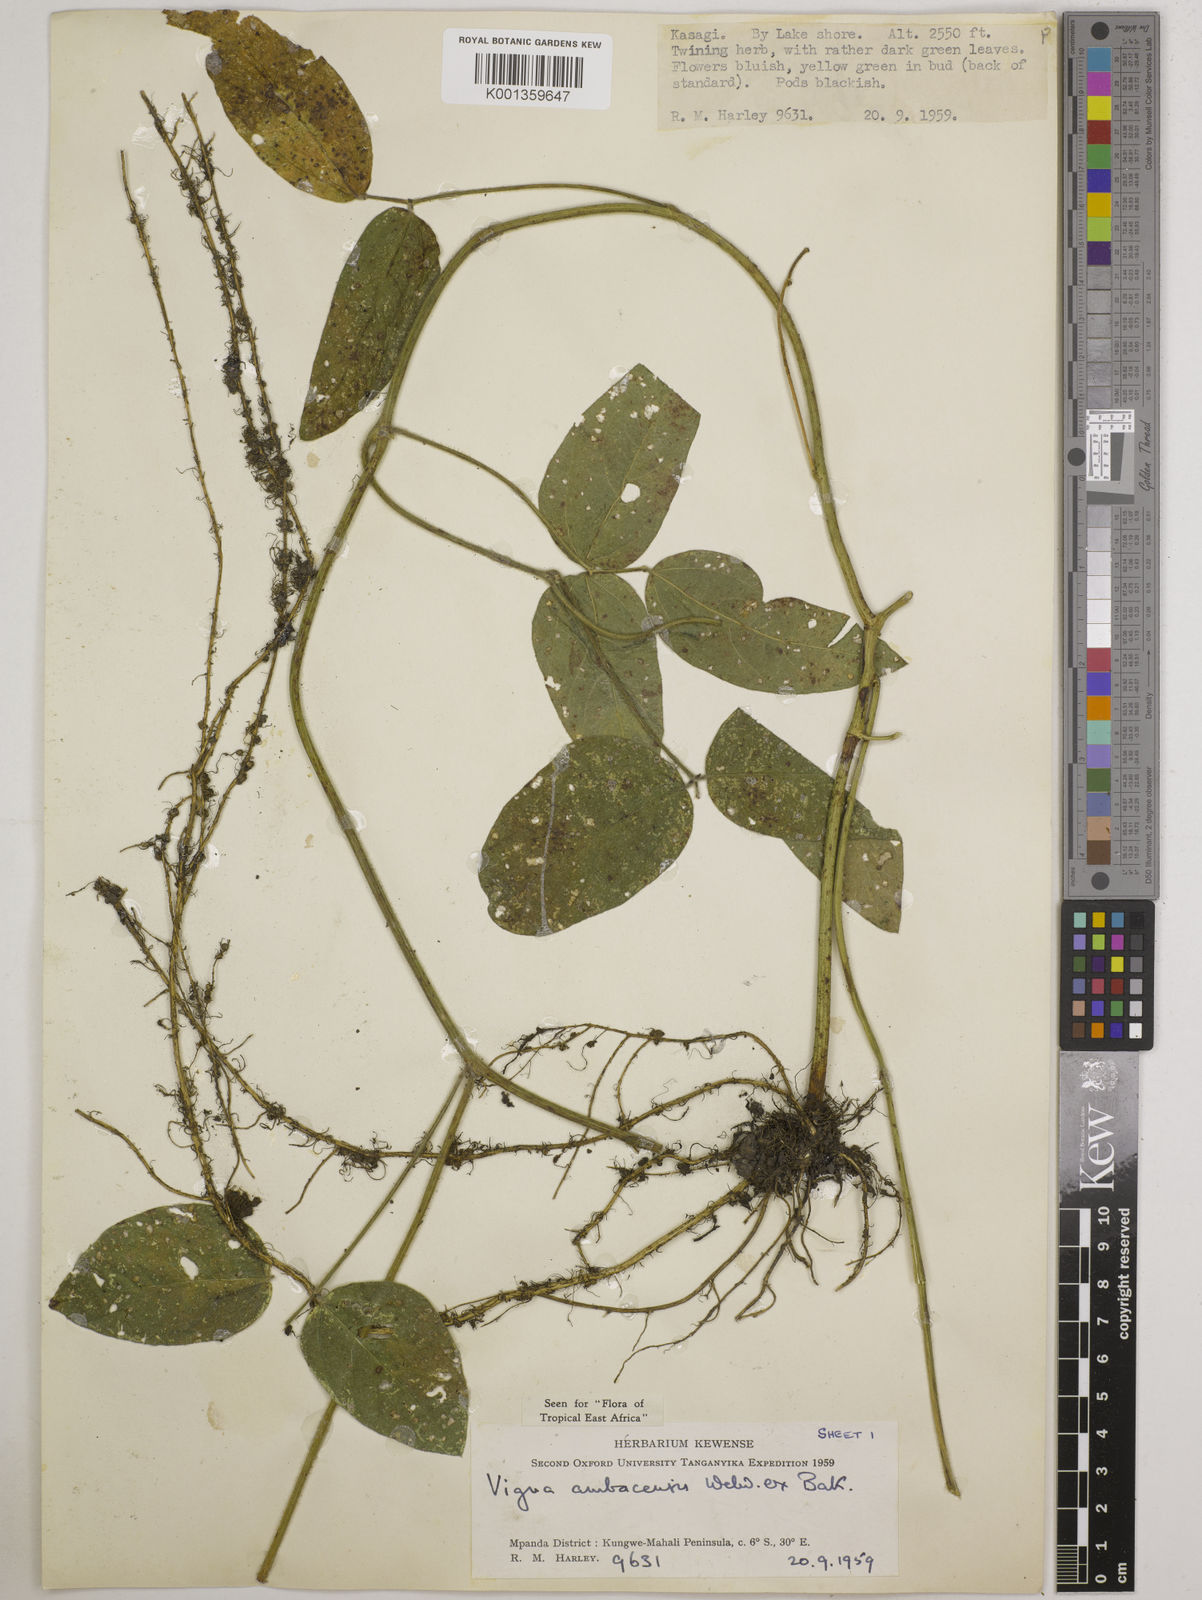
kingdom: Plantae
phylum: Tracheophyta
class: Magnoliopsida
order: Fabales
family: Fabaceae
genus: Vigna
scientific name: Vigna ambacensis
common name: Tsarkiyan zomo
